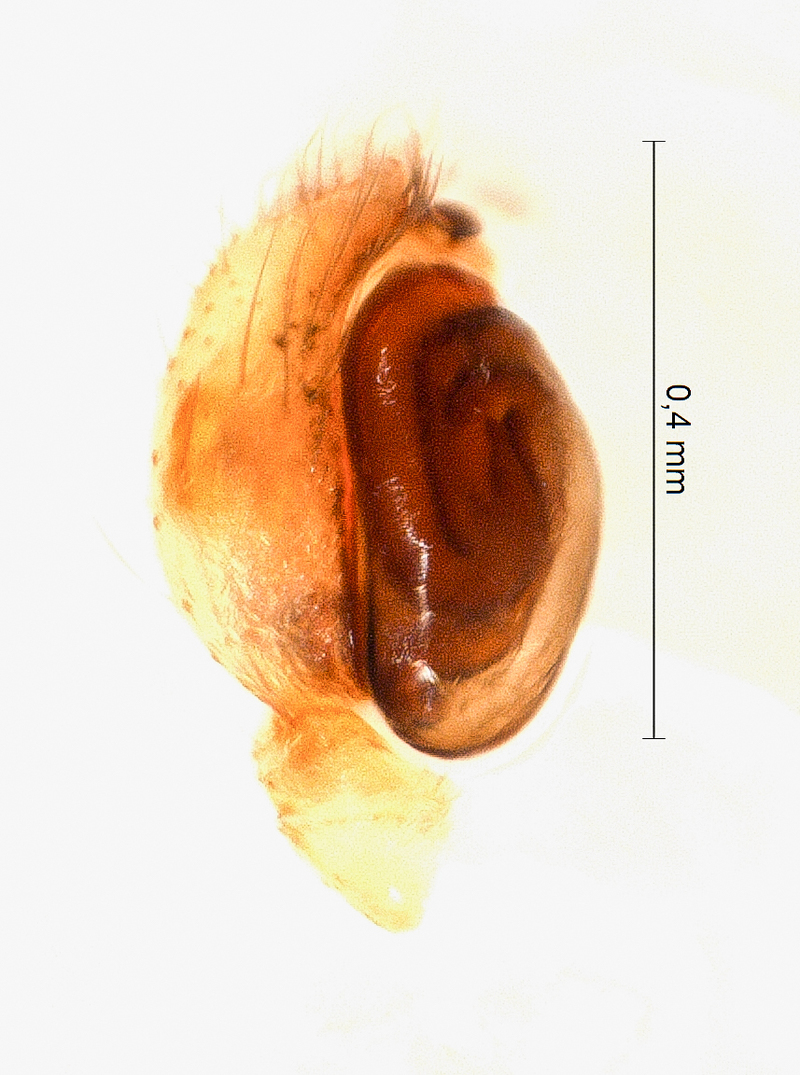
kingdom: Animalia
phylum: Arthropoda
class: Arachnida
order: Araneae
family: Salticidae
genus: Talavera
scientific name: Talavera aequipes
